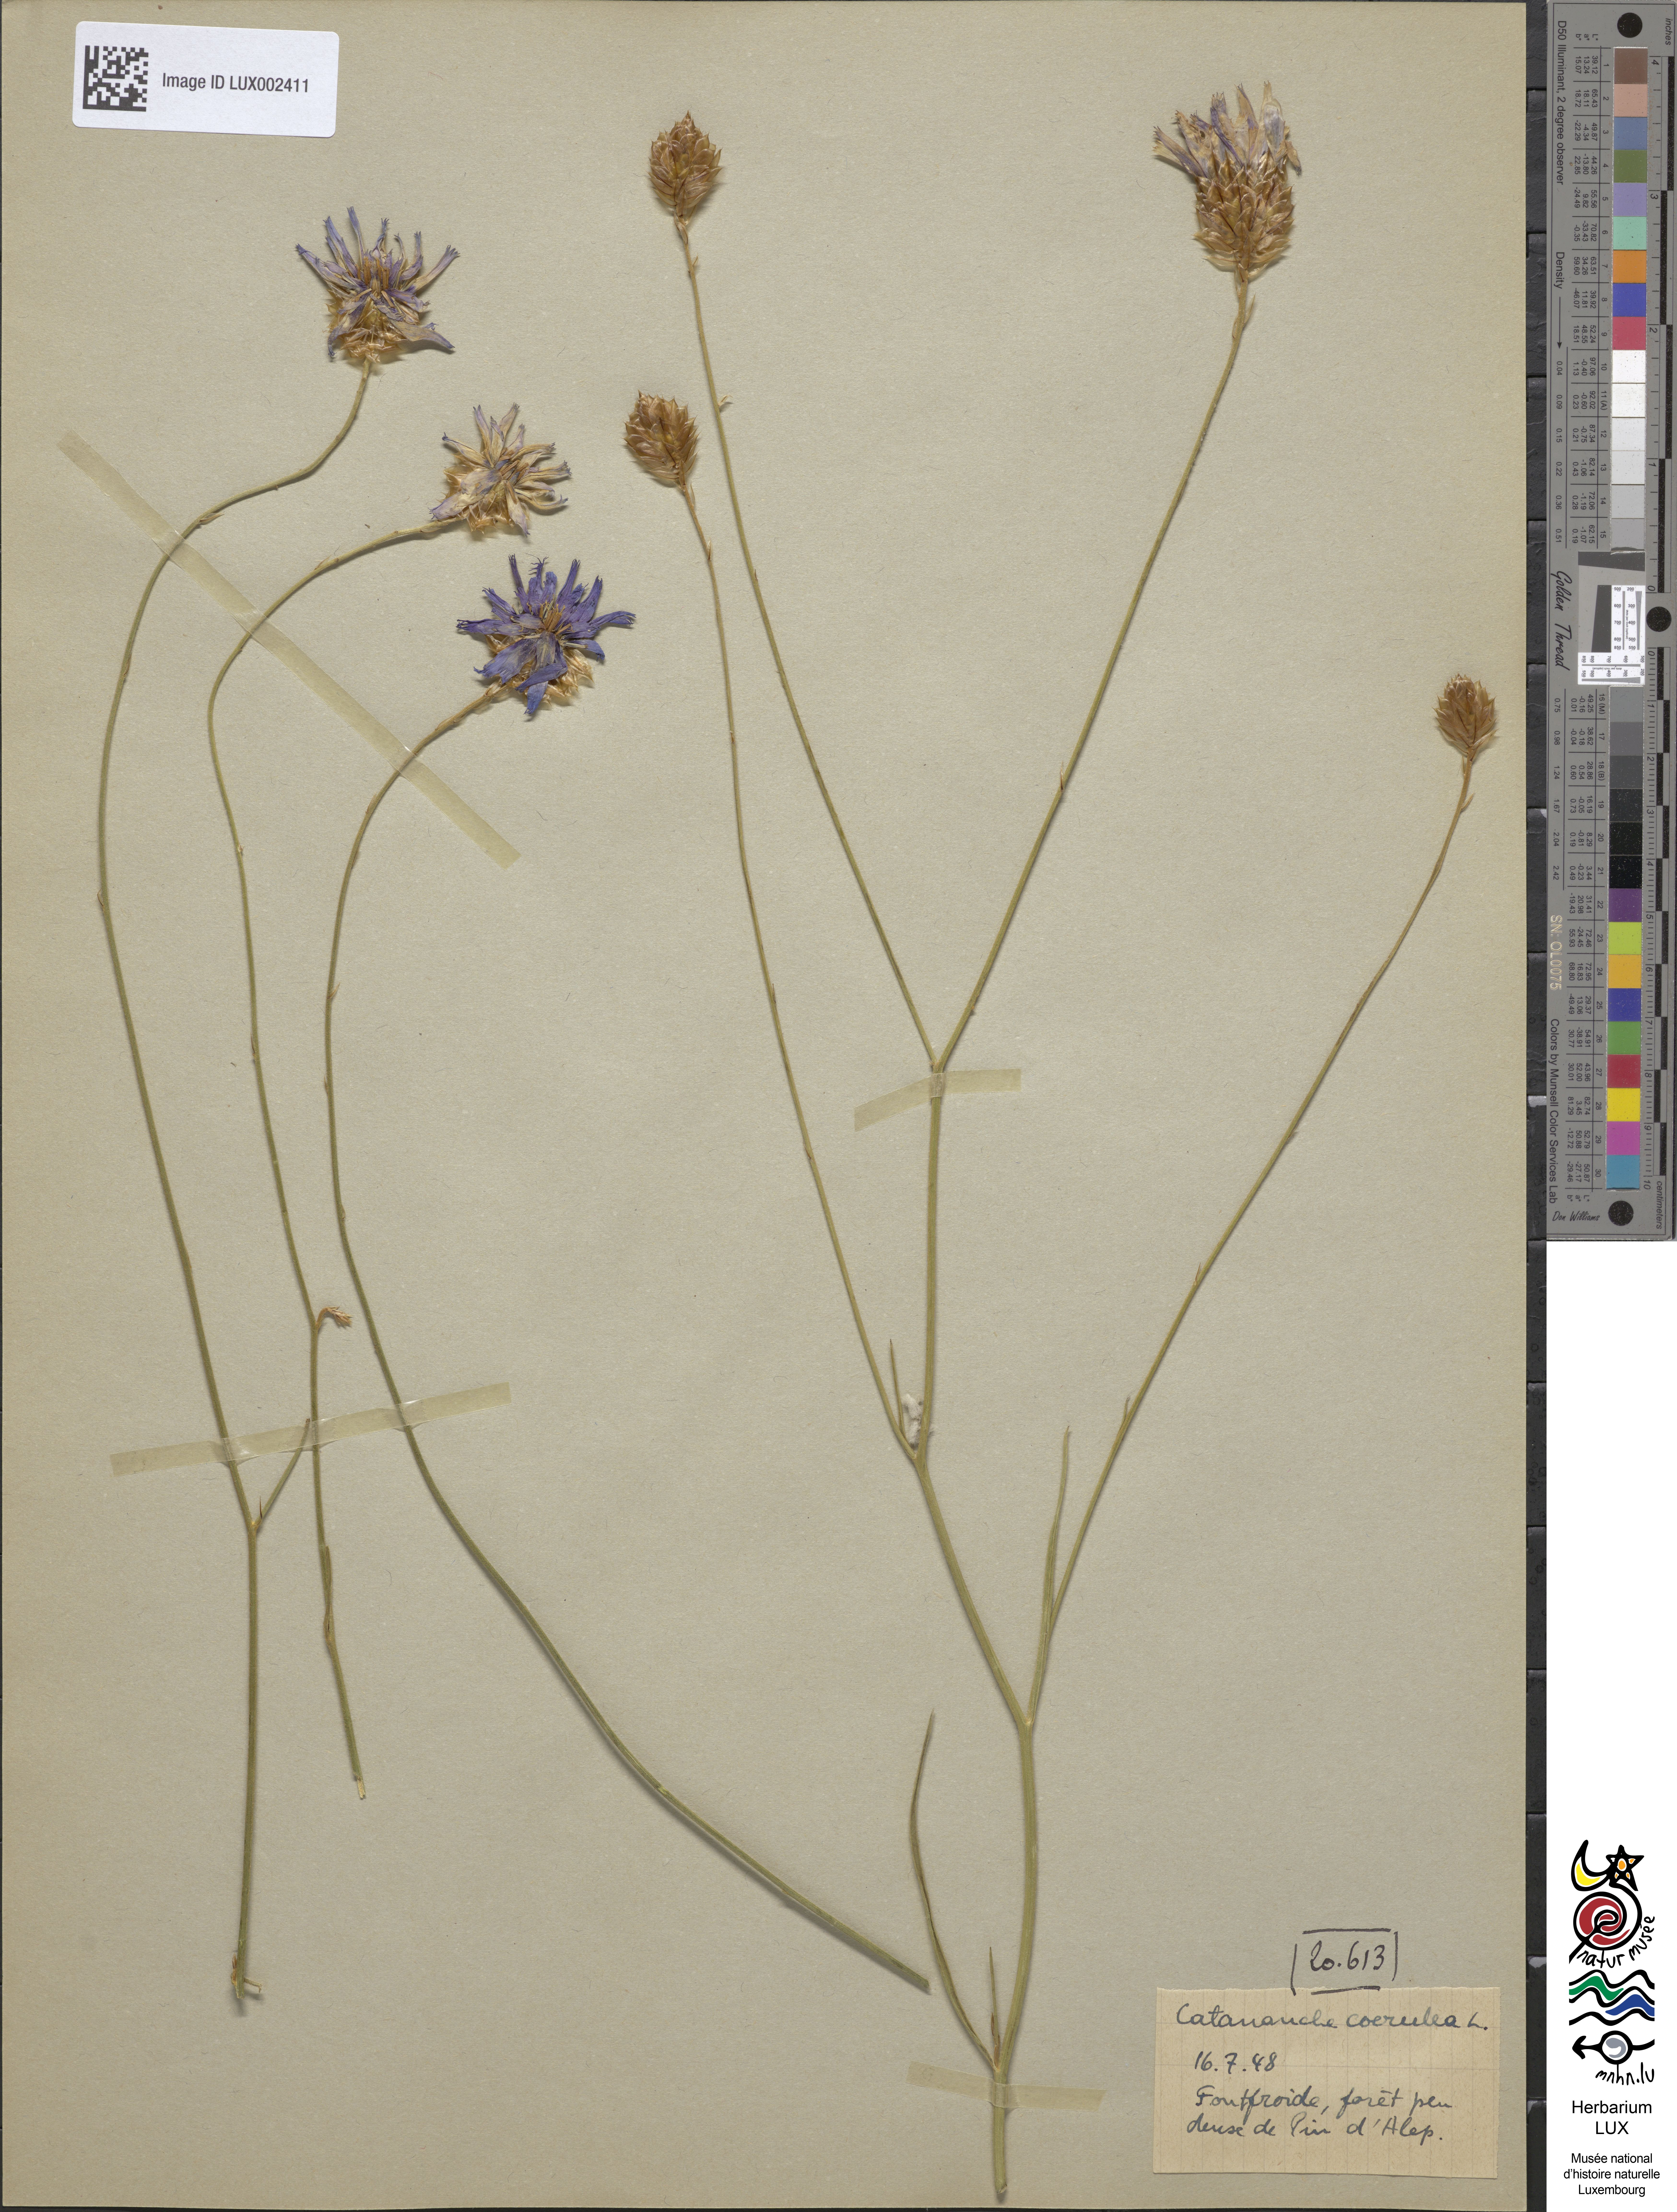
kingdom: Plantae
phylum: Tracheophyta
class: Magnoliopsida
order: Asterales
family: Asteraceae
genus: Catananche
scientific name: Catananche caerulea
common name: Blue cupidone
